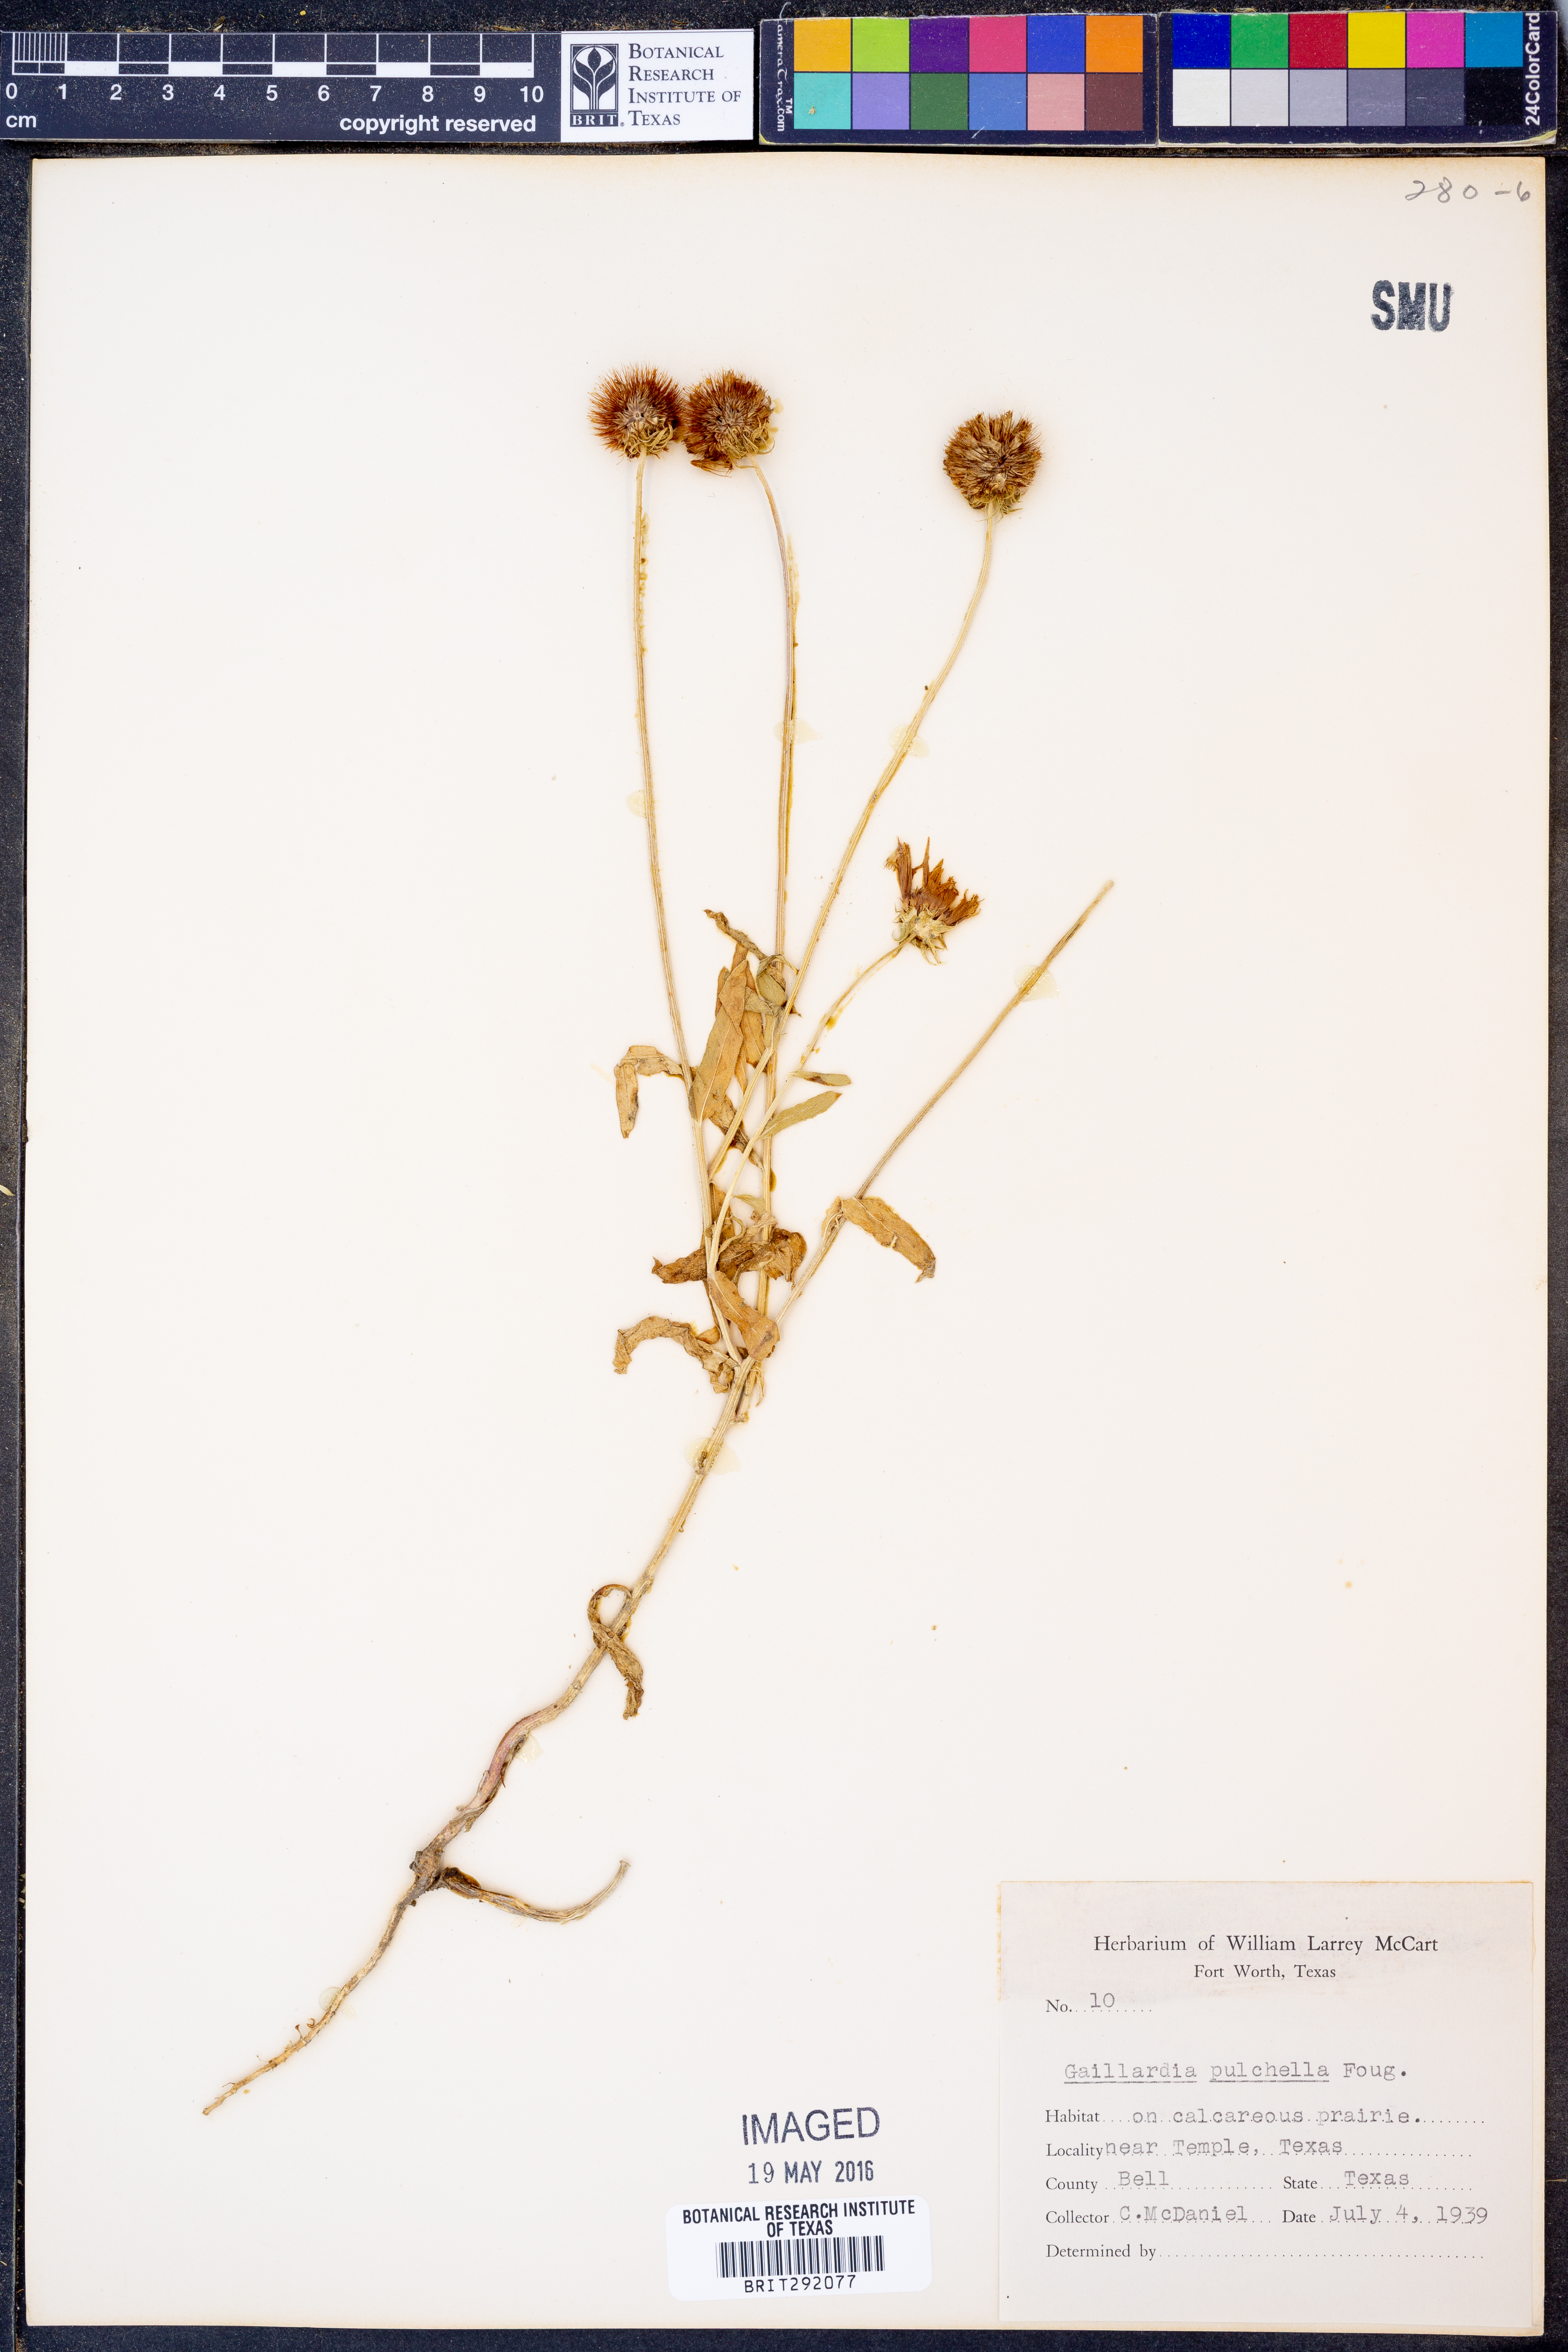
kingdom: Plantae
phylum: Tracheophyta
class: Magnoliopsida
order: Asterales
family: Asteraceae
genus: Gaillardia
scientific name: Gaillardia pulchella
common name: Firewheel
